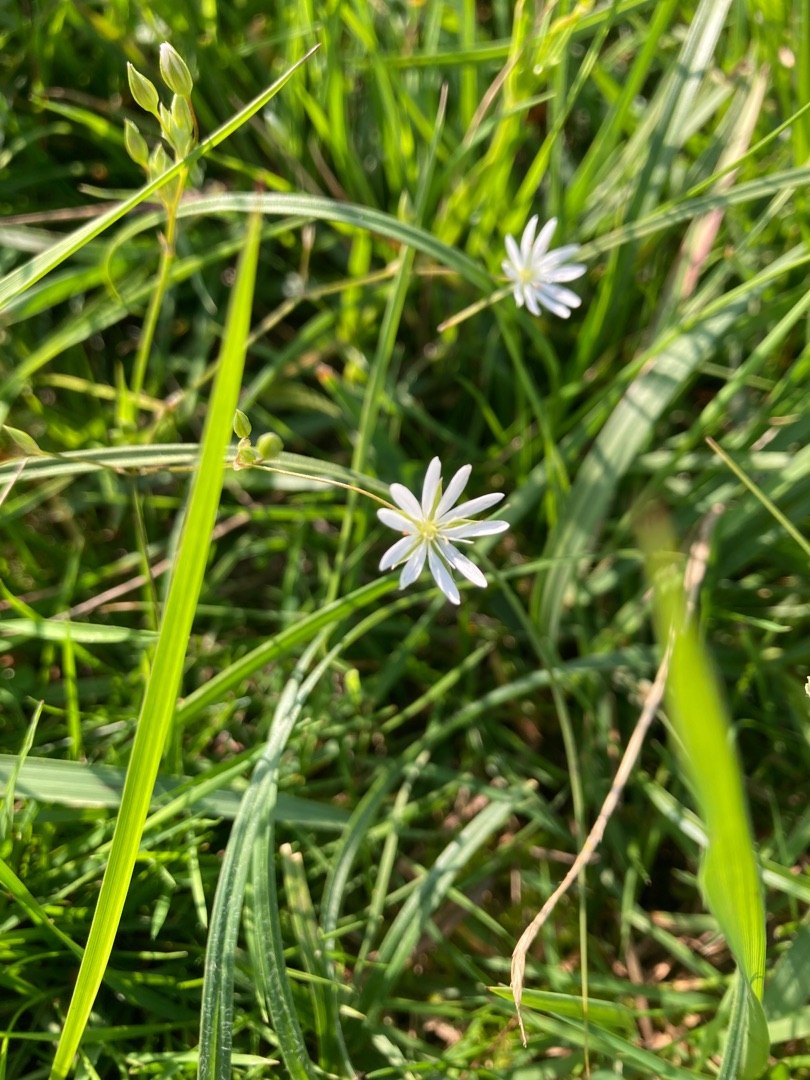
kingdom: Plantae
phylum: Tracheophyta
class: Magnoliopsida
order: Caryophyllales
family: Caryophyllaceae
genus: Stellaria
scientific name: Stellaria graminea
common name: Græsbladet fladstjerne
